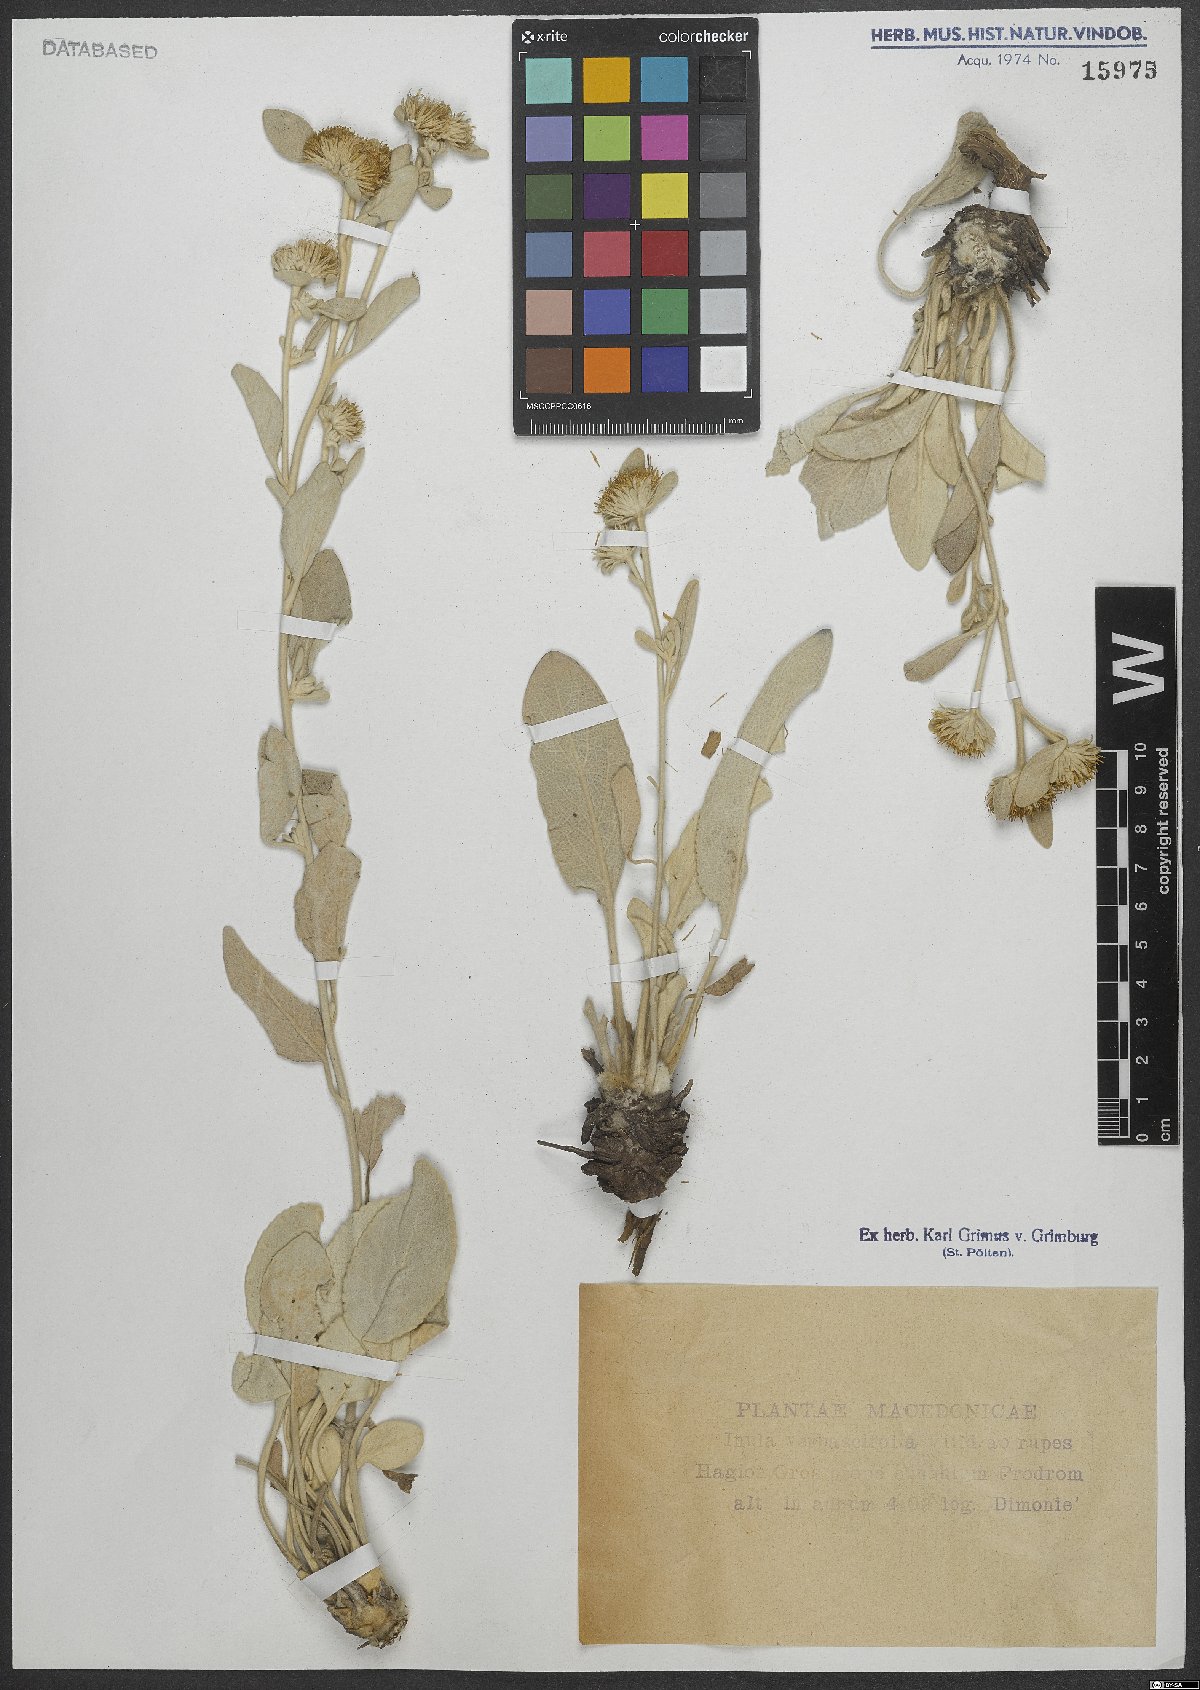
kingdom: Plantae
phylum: Tracheophyta
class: Magnoliopsida
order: Asterales
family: Asteraceae
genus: Pentanema
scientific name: Pentanema verbascifolium
